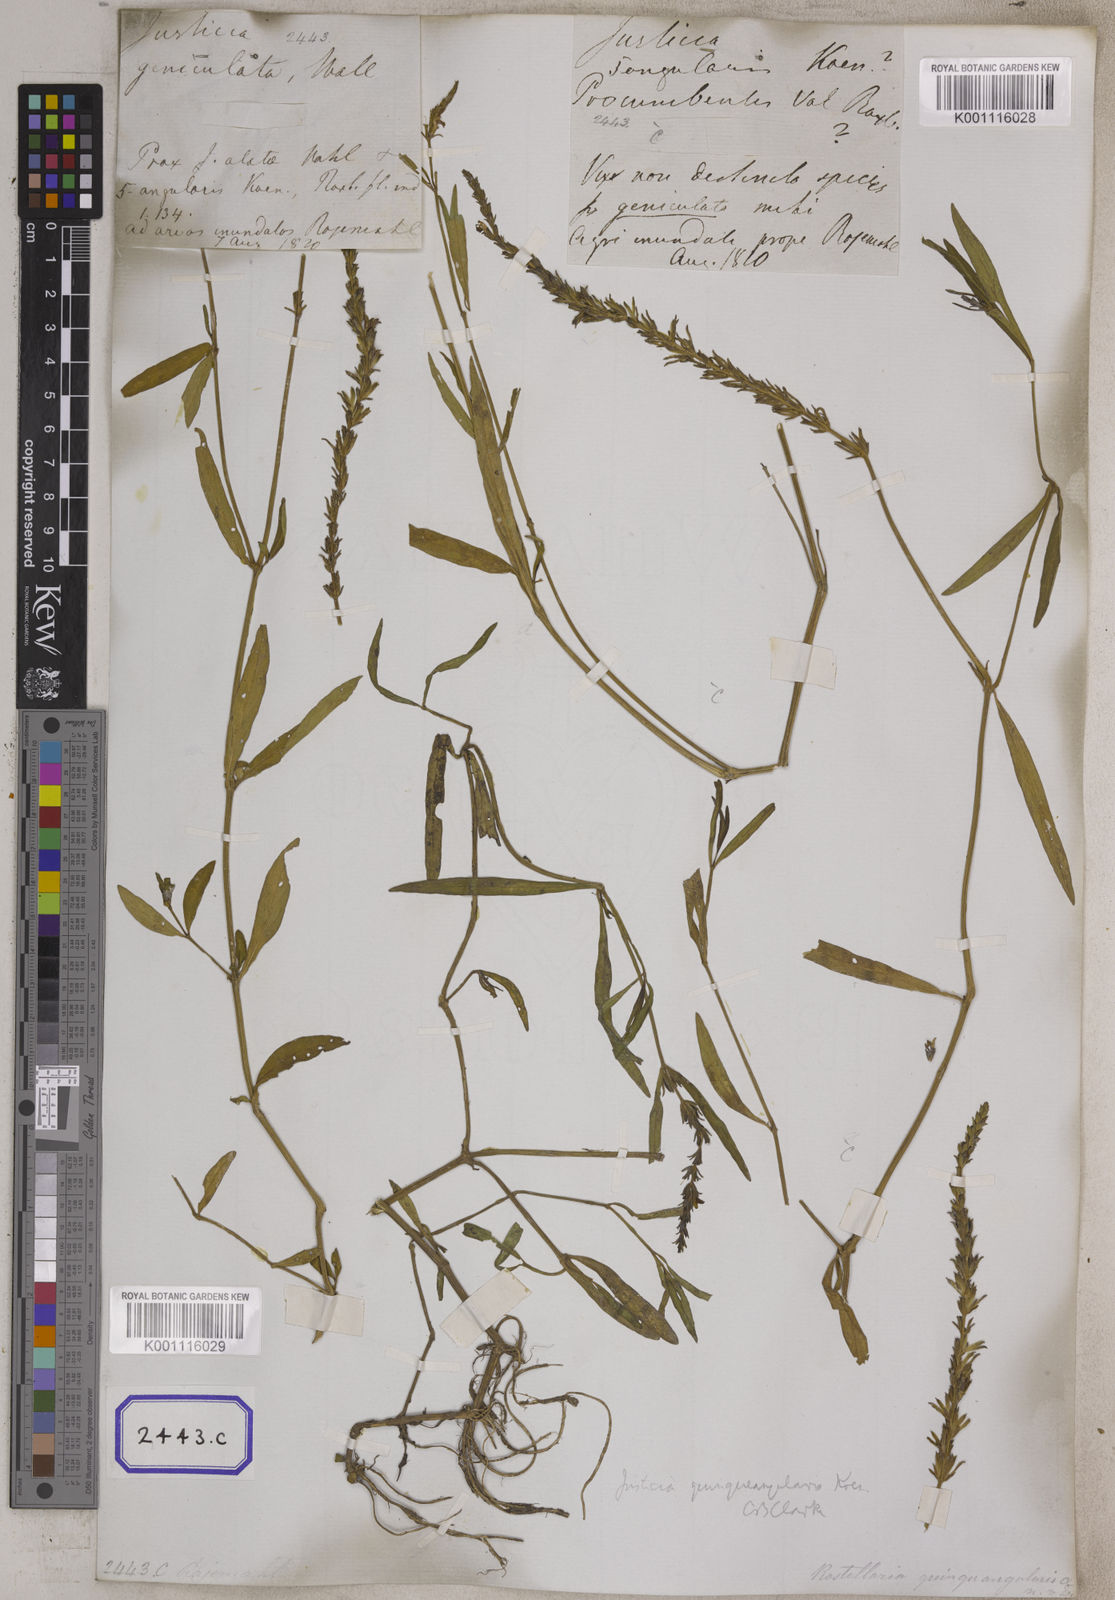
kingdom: Plantae
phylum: Tracheophyta
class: Magnoliopsida
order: Lamiales
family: Acanthaceae
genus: Rostellularia
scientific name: Rostellularia diffusa
